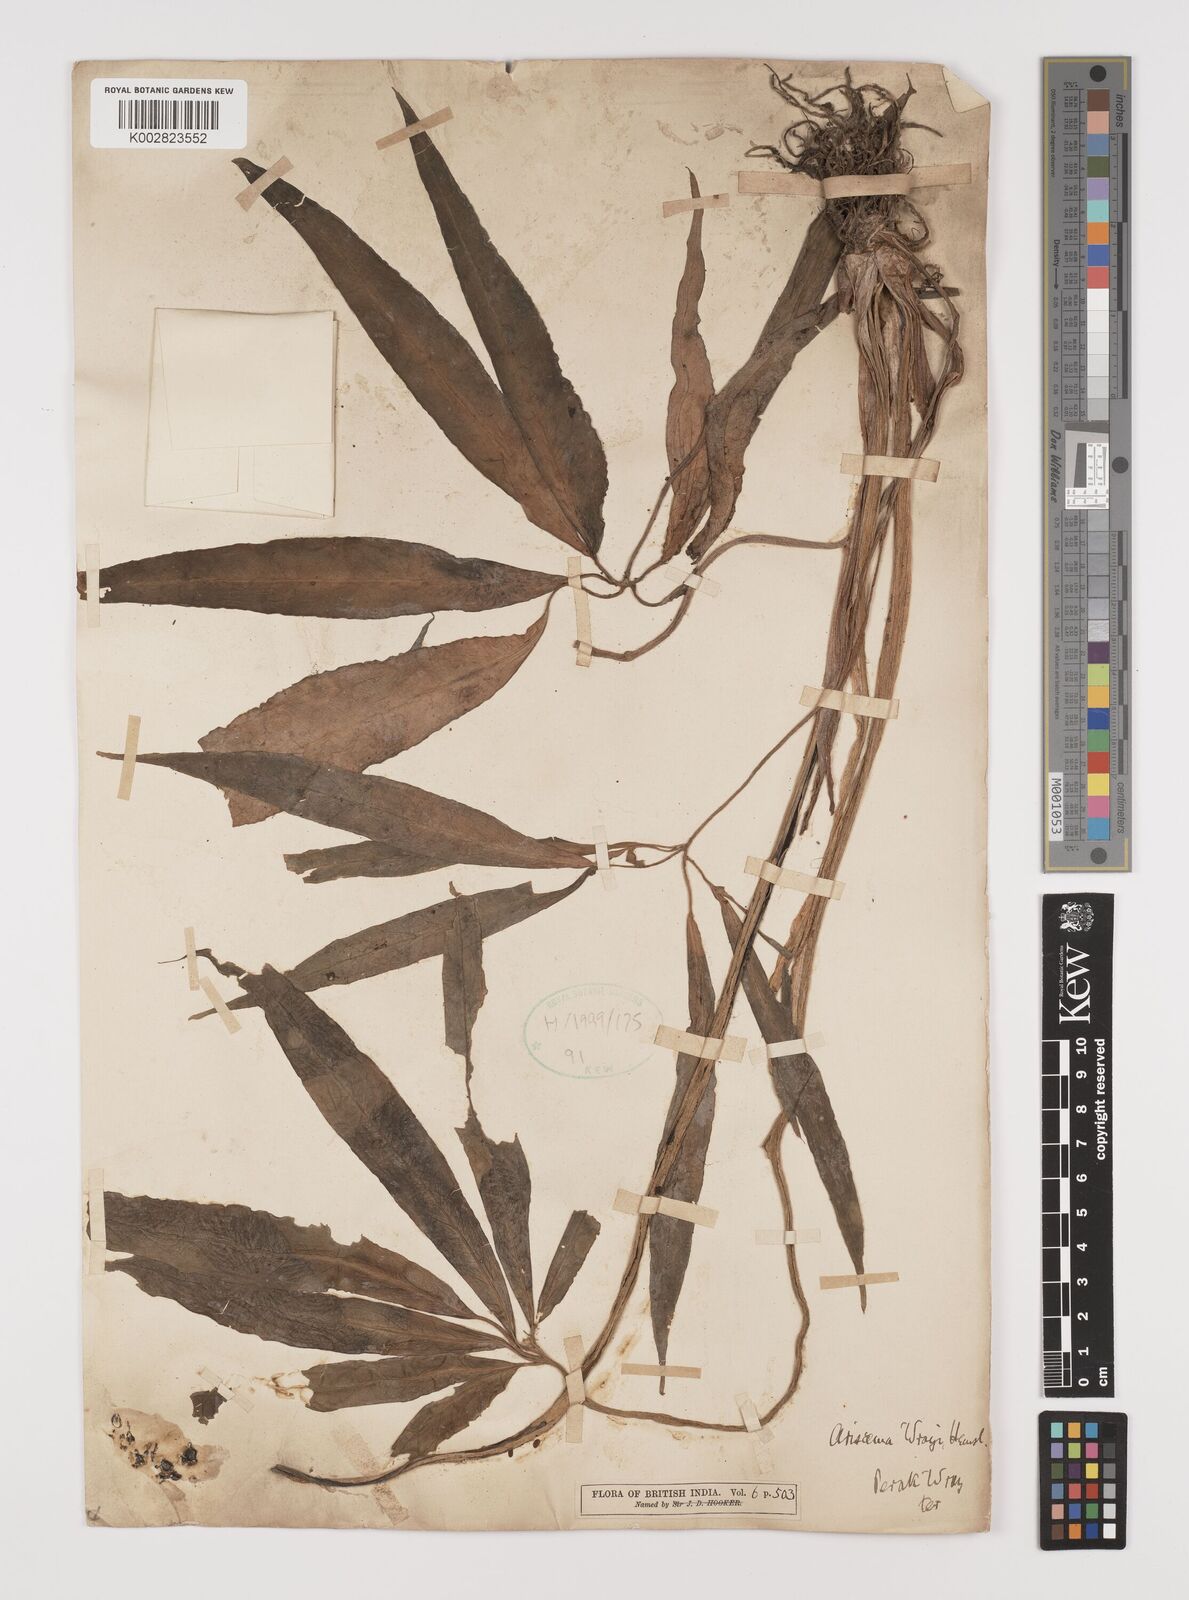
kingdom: Plantae
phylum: Tracheophyta
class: Liliopsida
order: Alismatales
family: Araceae
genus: Arisaema
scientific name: Arisaema wrayi
